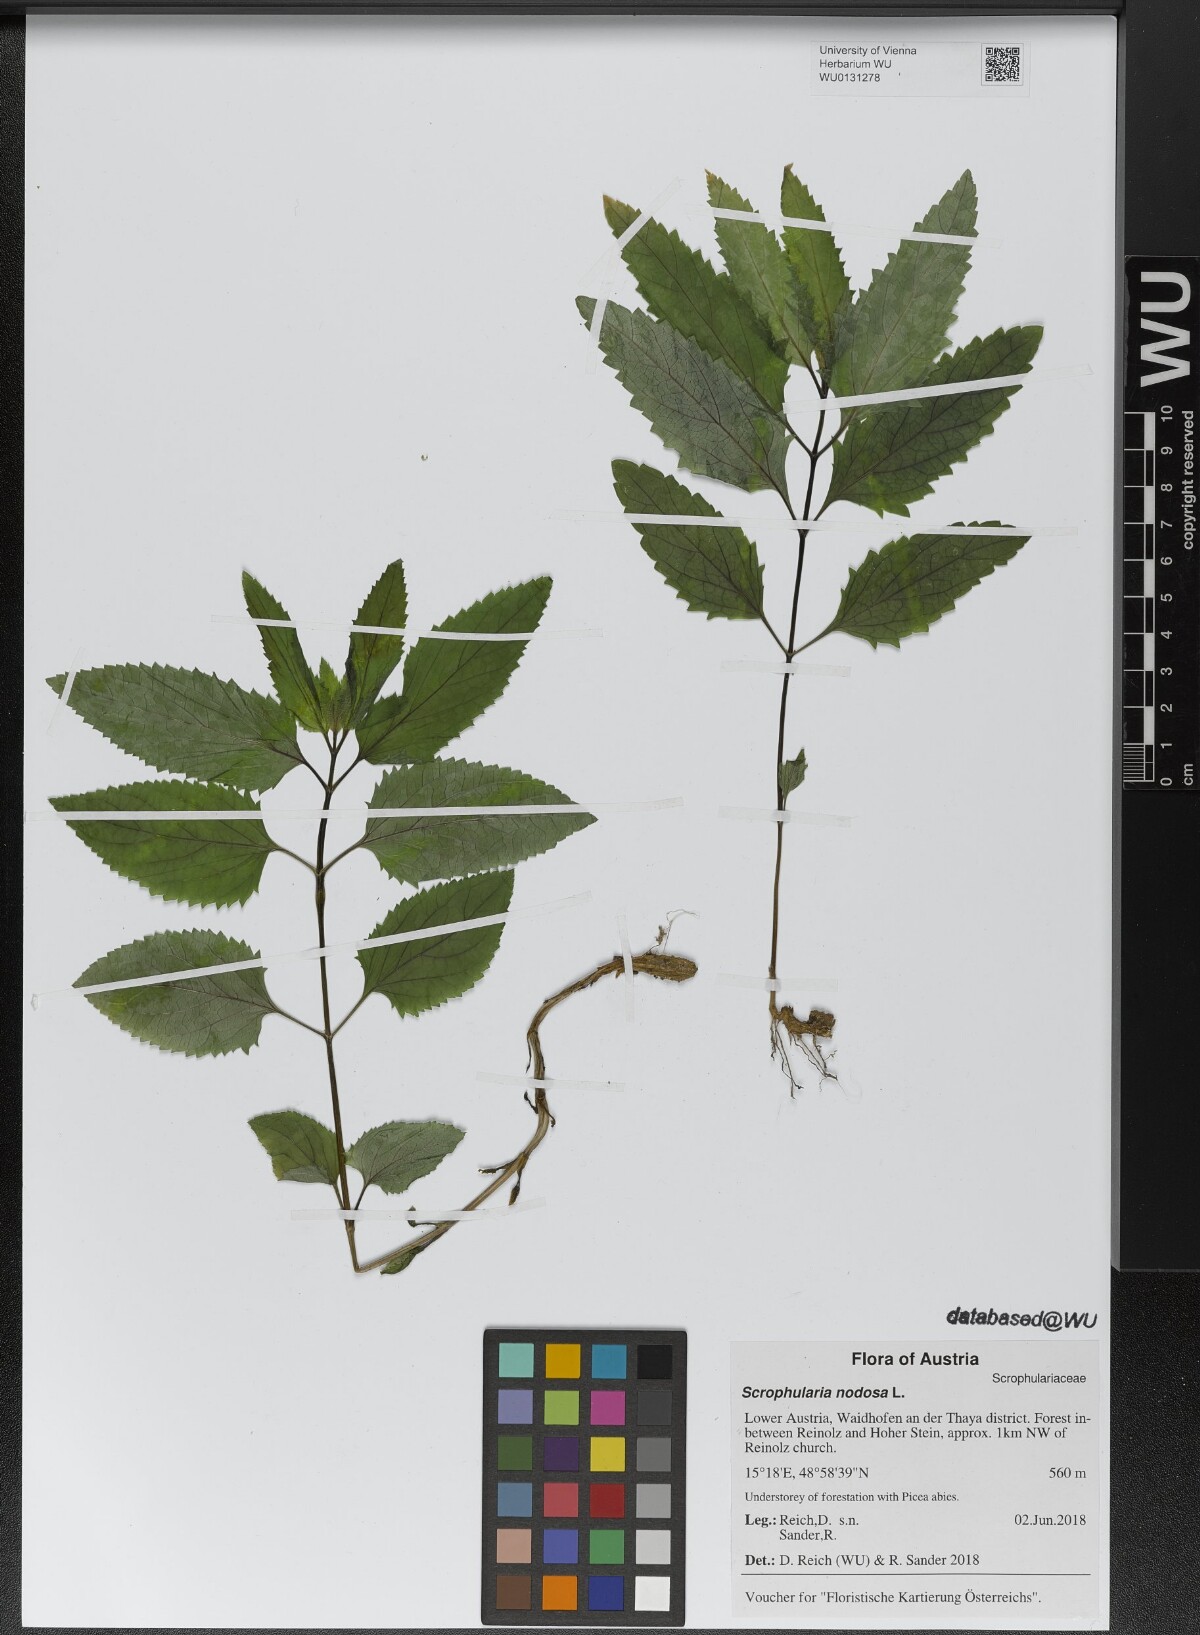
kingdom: Plantae
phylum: Tracheophyta
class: Magnoliopsida
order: Lamiales
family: Scrophulariaceae
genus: Scrophularia
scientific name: Scrophularia nodosa
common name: Common figwort
